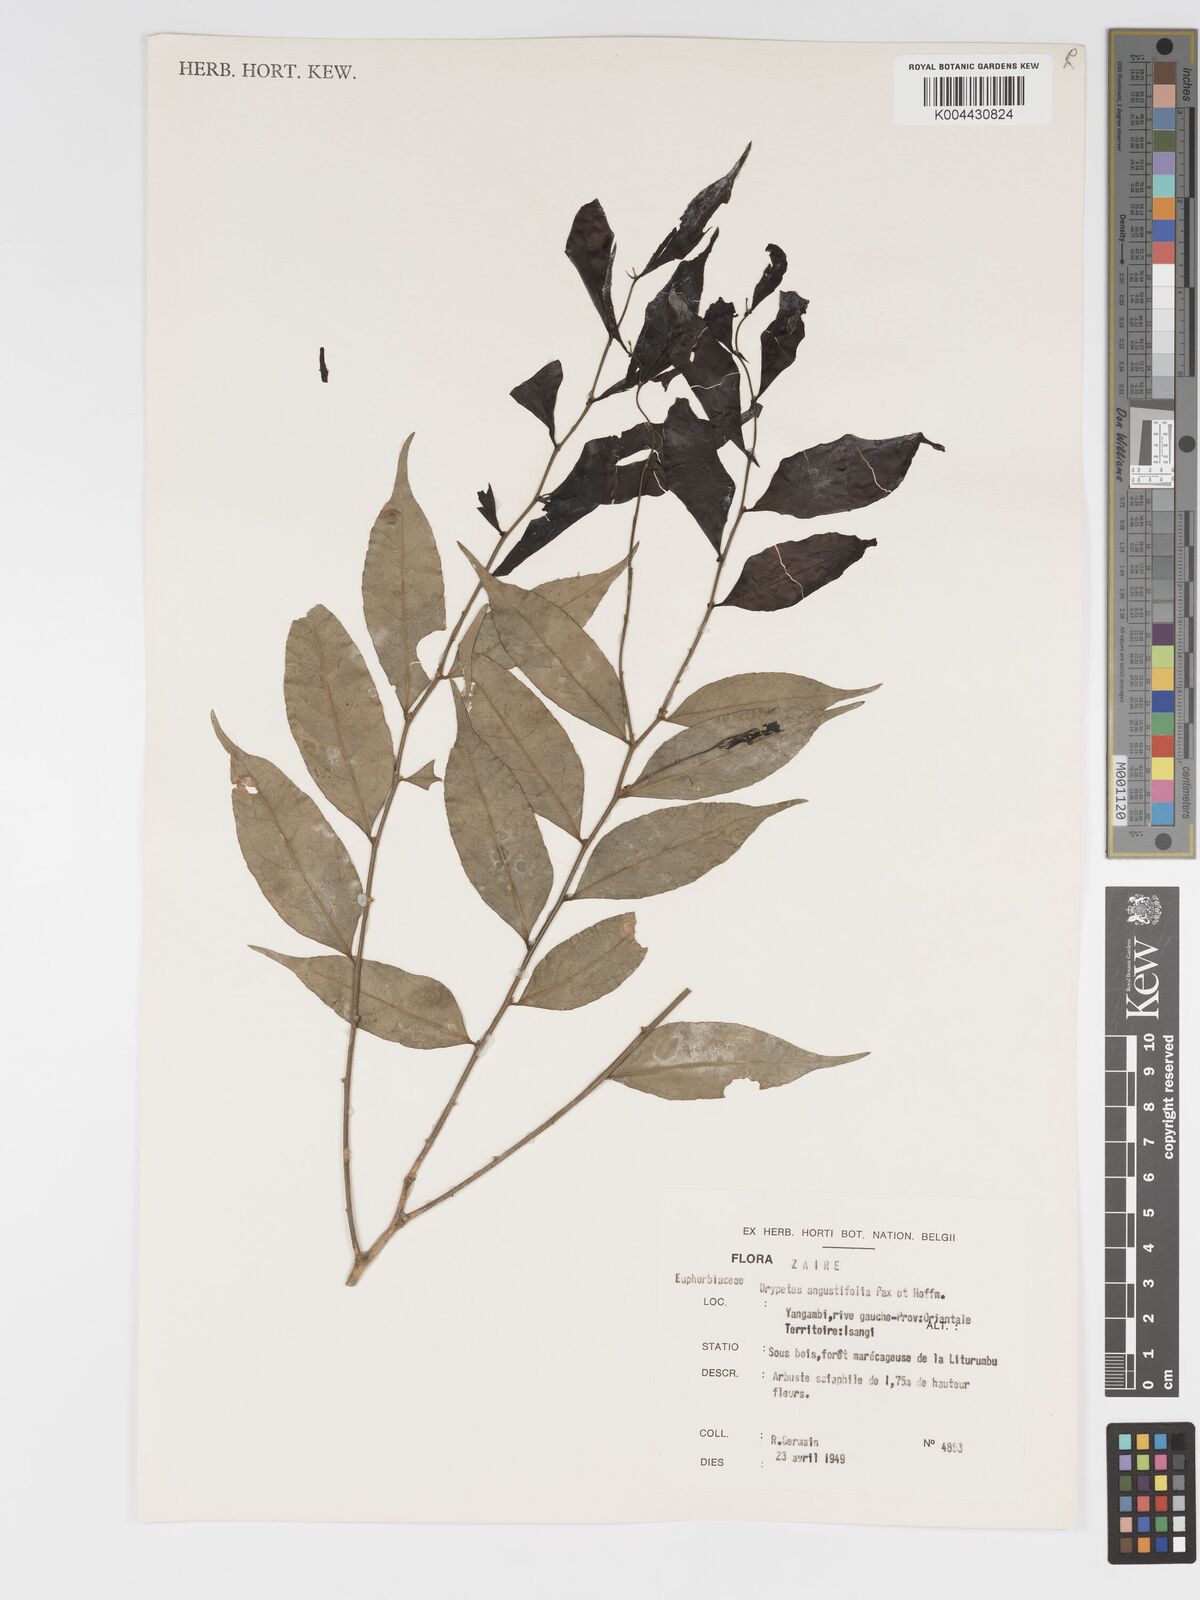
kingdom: Plantae
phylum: Tracheophyta
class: Magnoliopsida
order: Malpighiales
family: Putranjivaceae
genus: Drypetes
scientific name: Drypetes angustifolia
